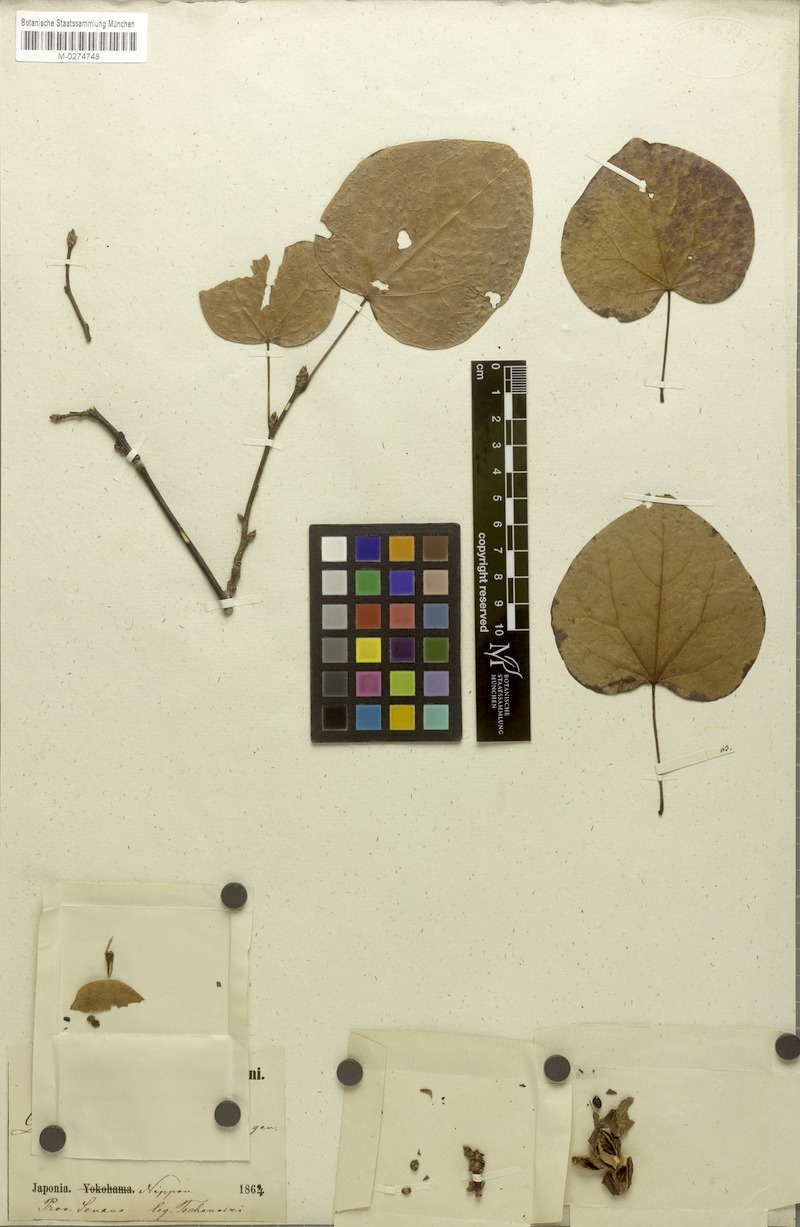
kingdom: Plantae
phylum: Tracheophyta
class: Magnoliopsida
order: Saxifragales
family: Hamamelidaceae
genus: Disanthus
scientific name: Disanthus cercidifolius
